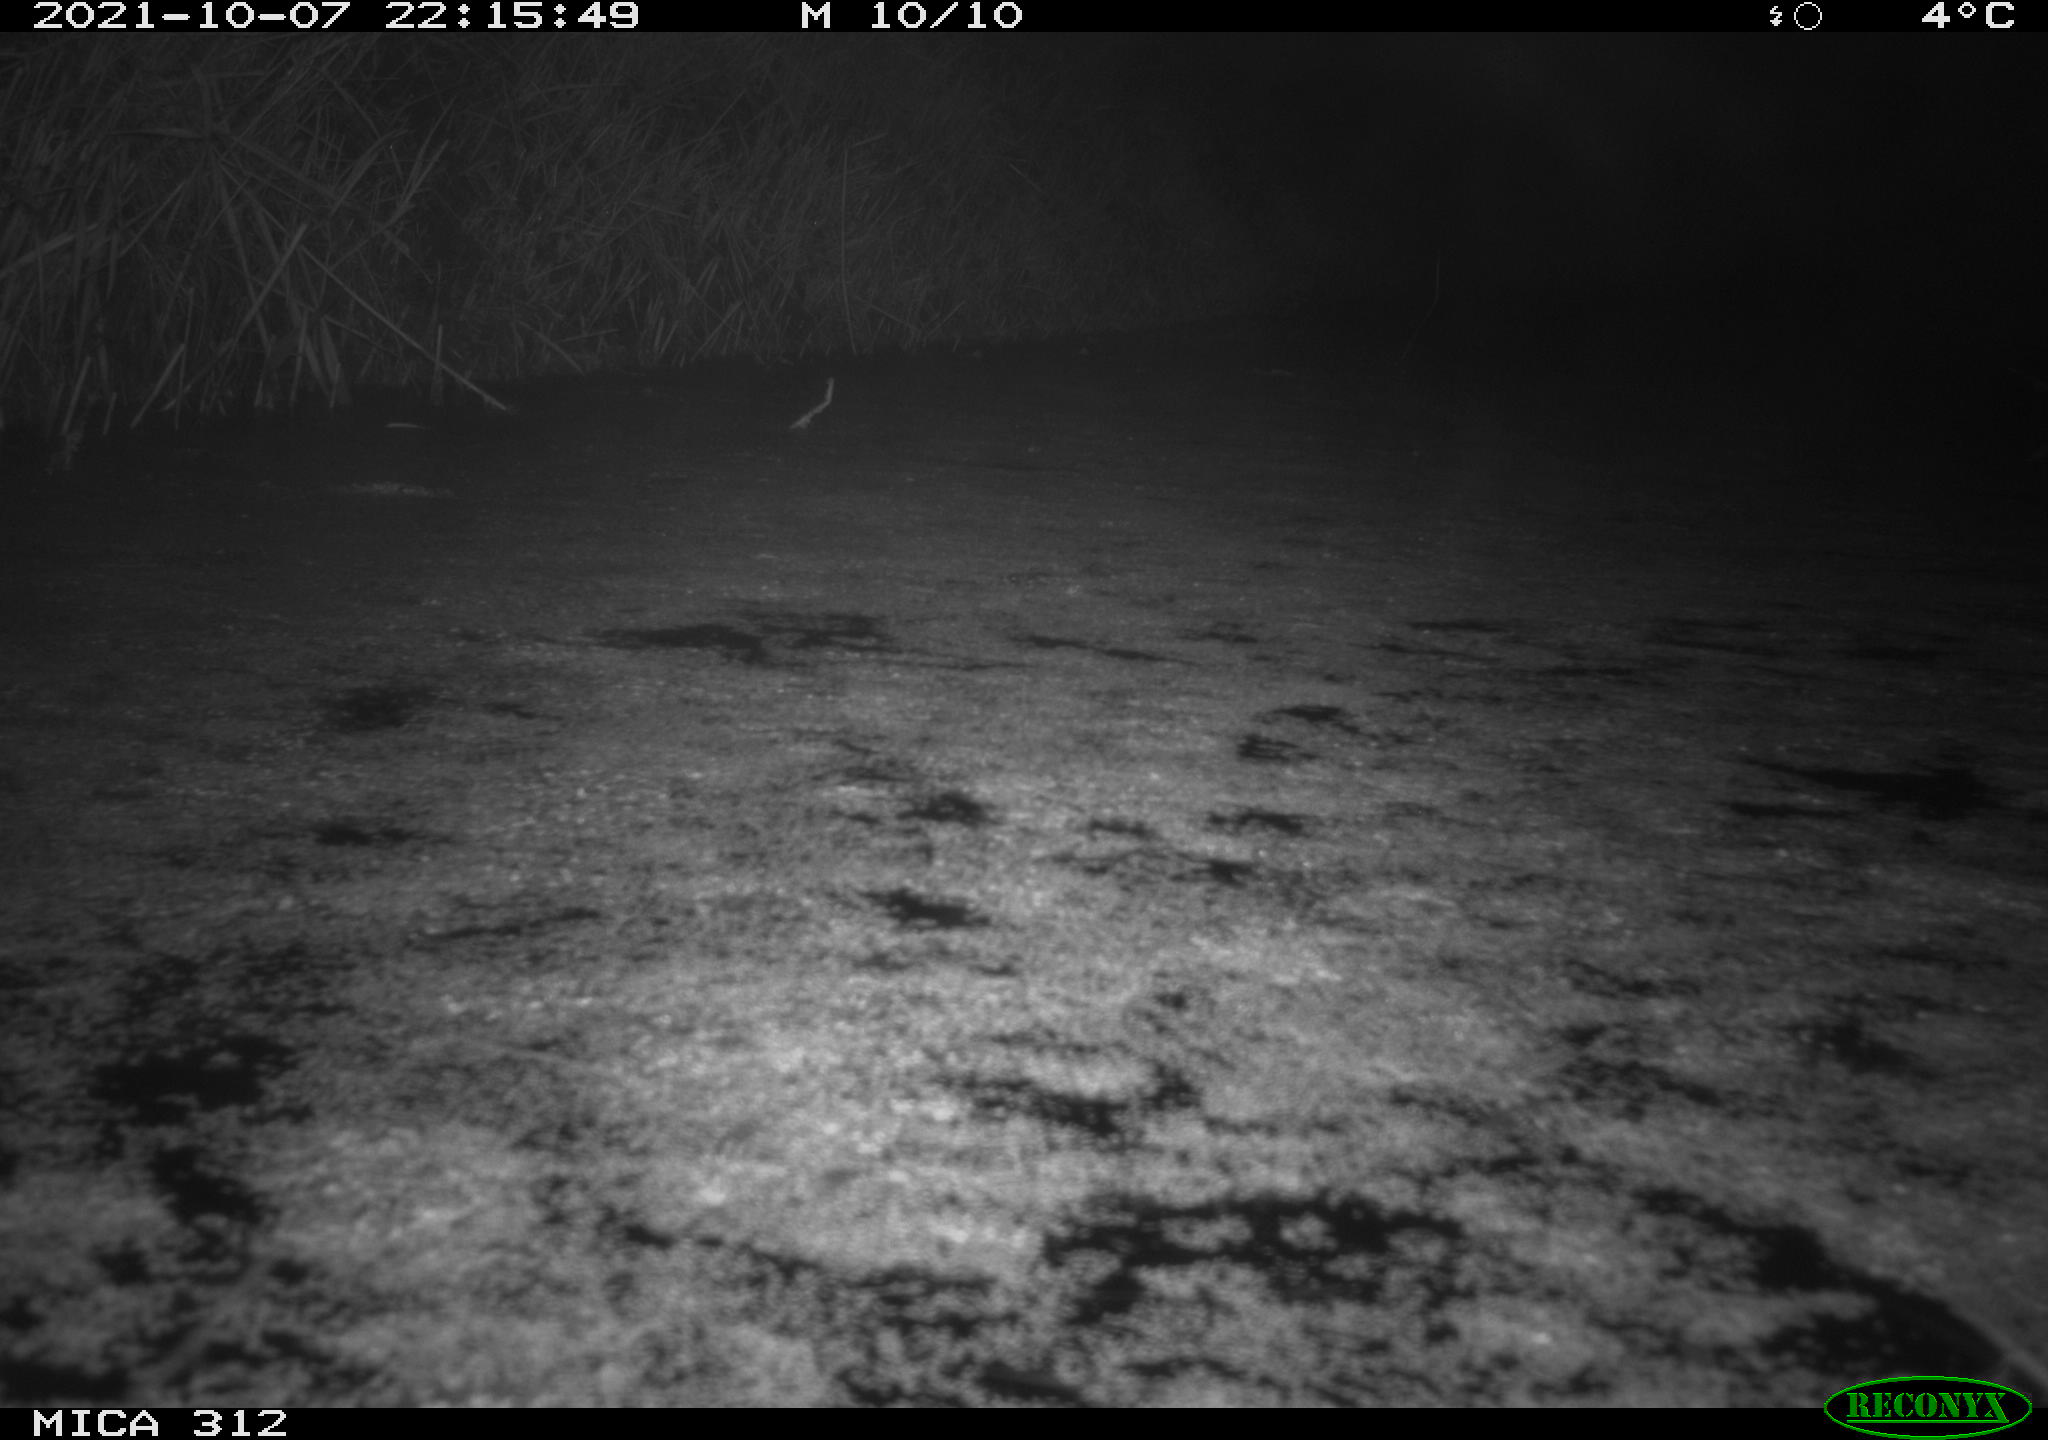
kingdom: Animalia
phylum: Chordata
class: Mammalia
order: Rodentia
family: Muridae
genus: Rattus
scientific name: Rattus norvegicus
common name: Brown rat
